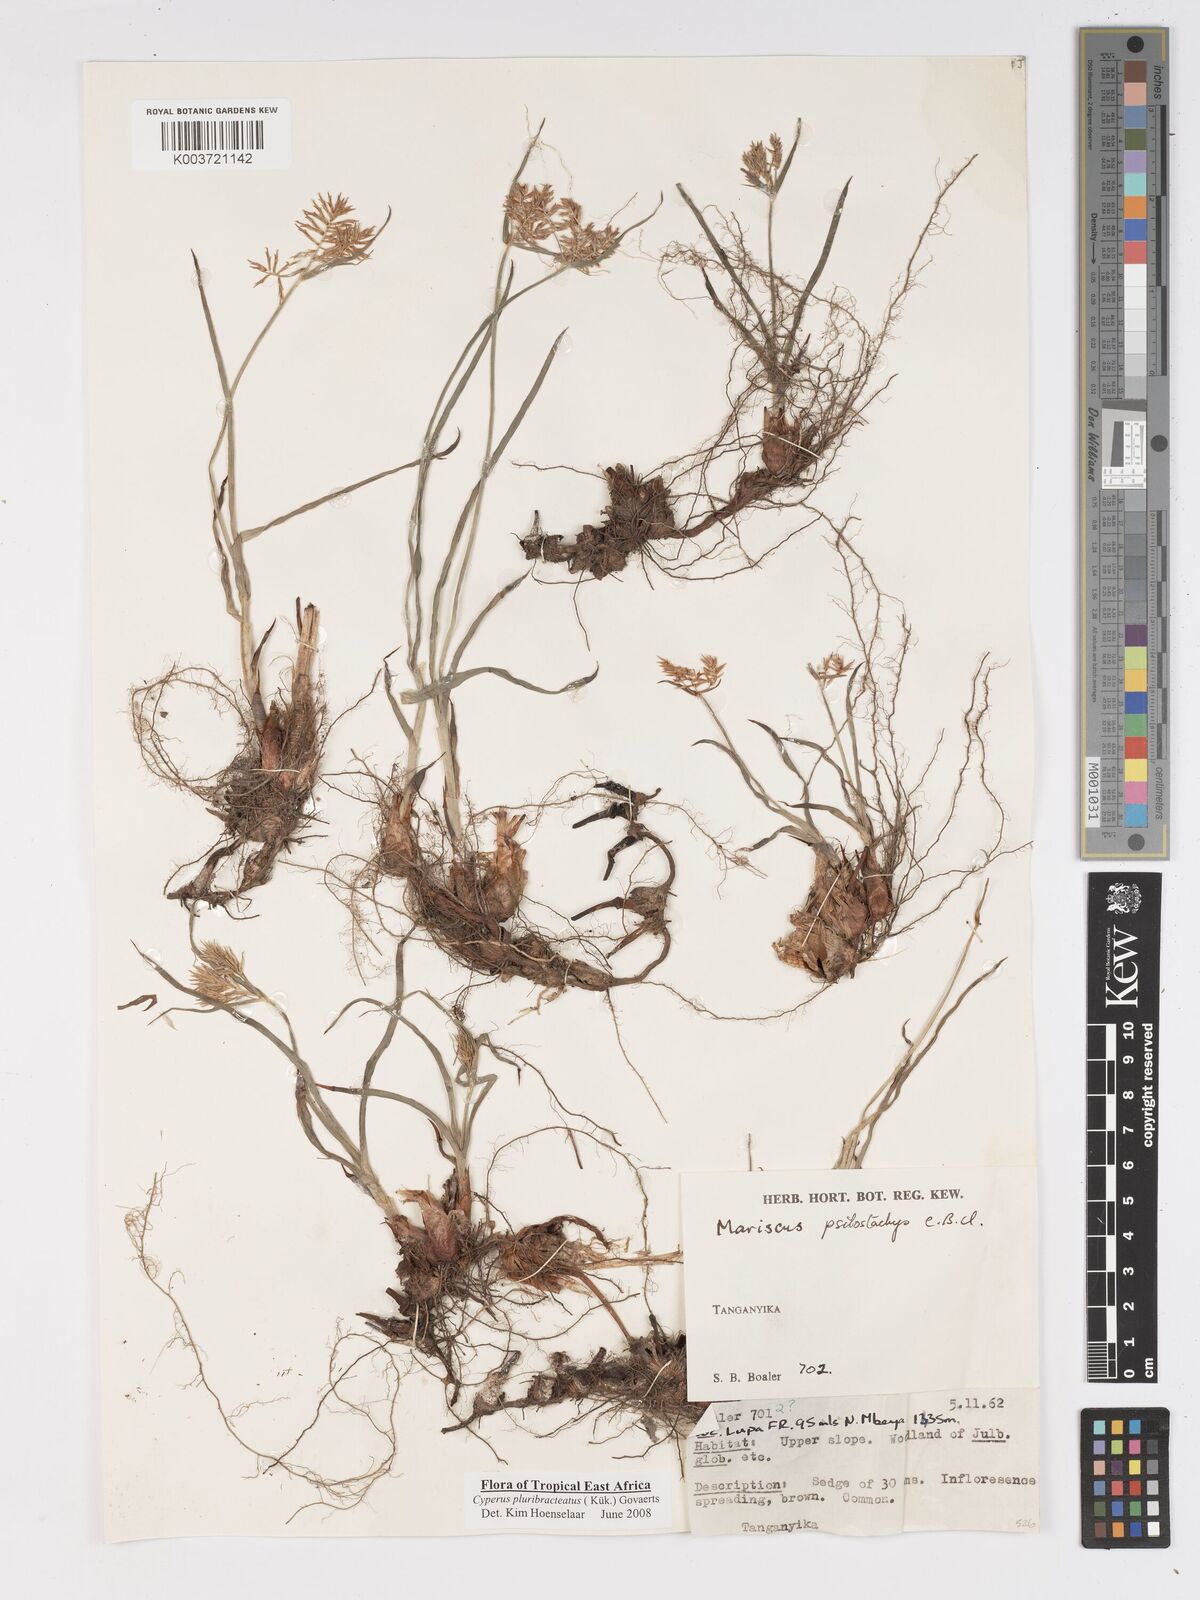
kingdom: Plantae
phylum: Tracheophyta
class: Liliopsida
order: Poales
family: Cyperaceae
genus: Cyperus
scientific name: Cyperus trigonellus
